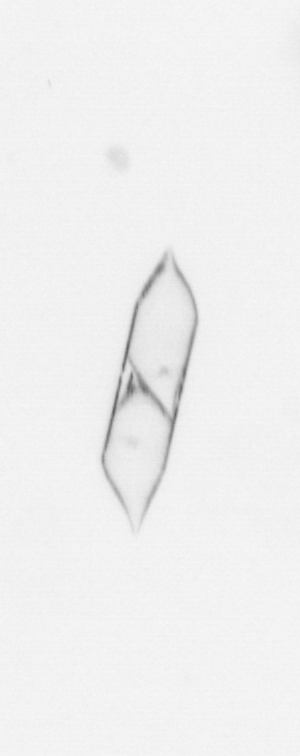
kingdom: Chromista
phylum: Ochrophyta
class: Bacillariophyceae
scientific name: Bacillariophyceae
